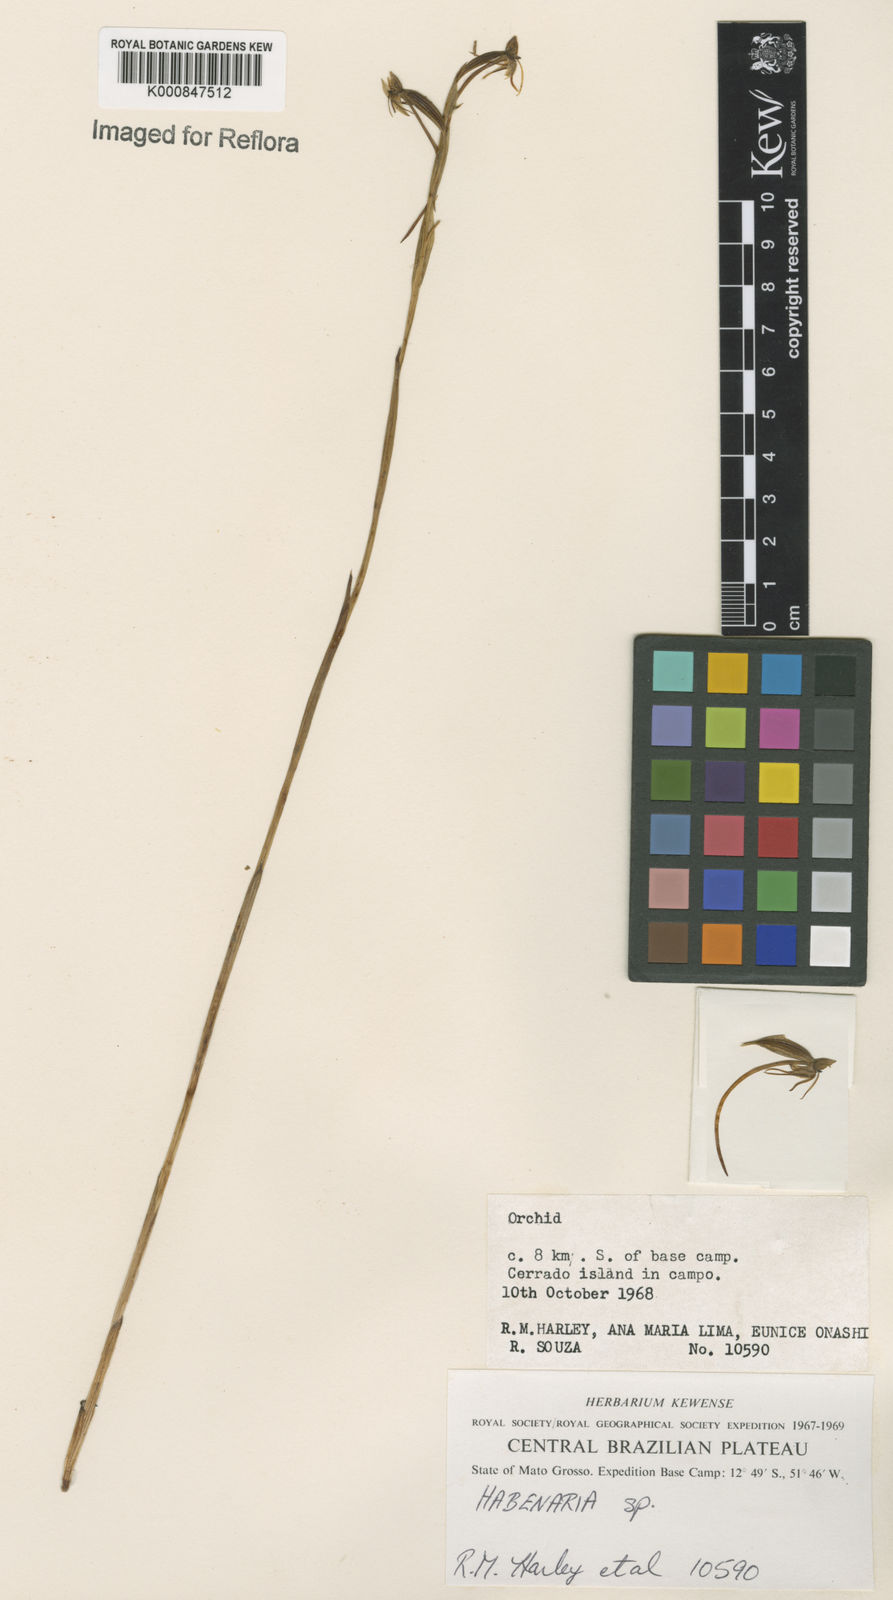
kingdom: Plantae
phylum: Tracheophyta
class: Liliopsida
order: Asparagales
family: Orchidaceae
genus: Habenaria
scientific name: Habenaria
